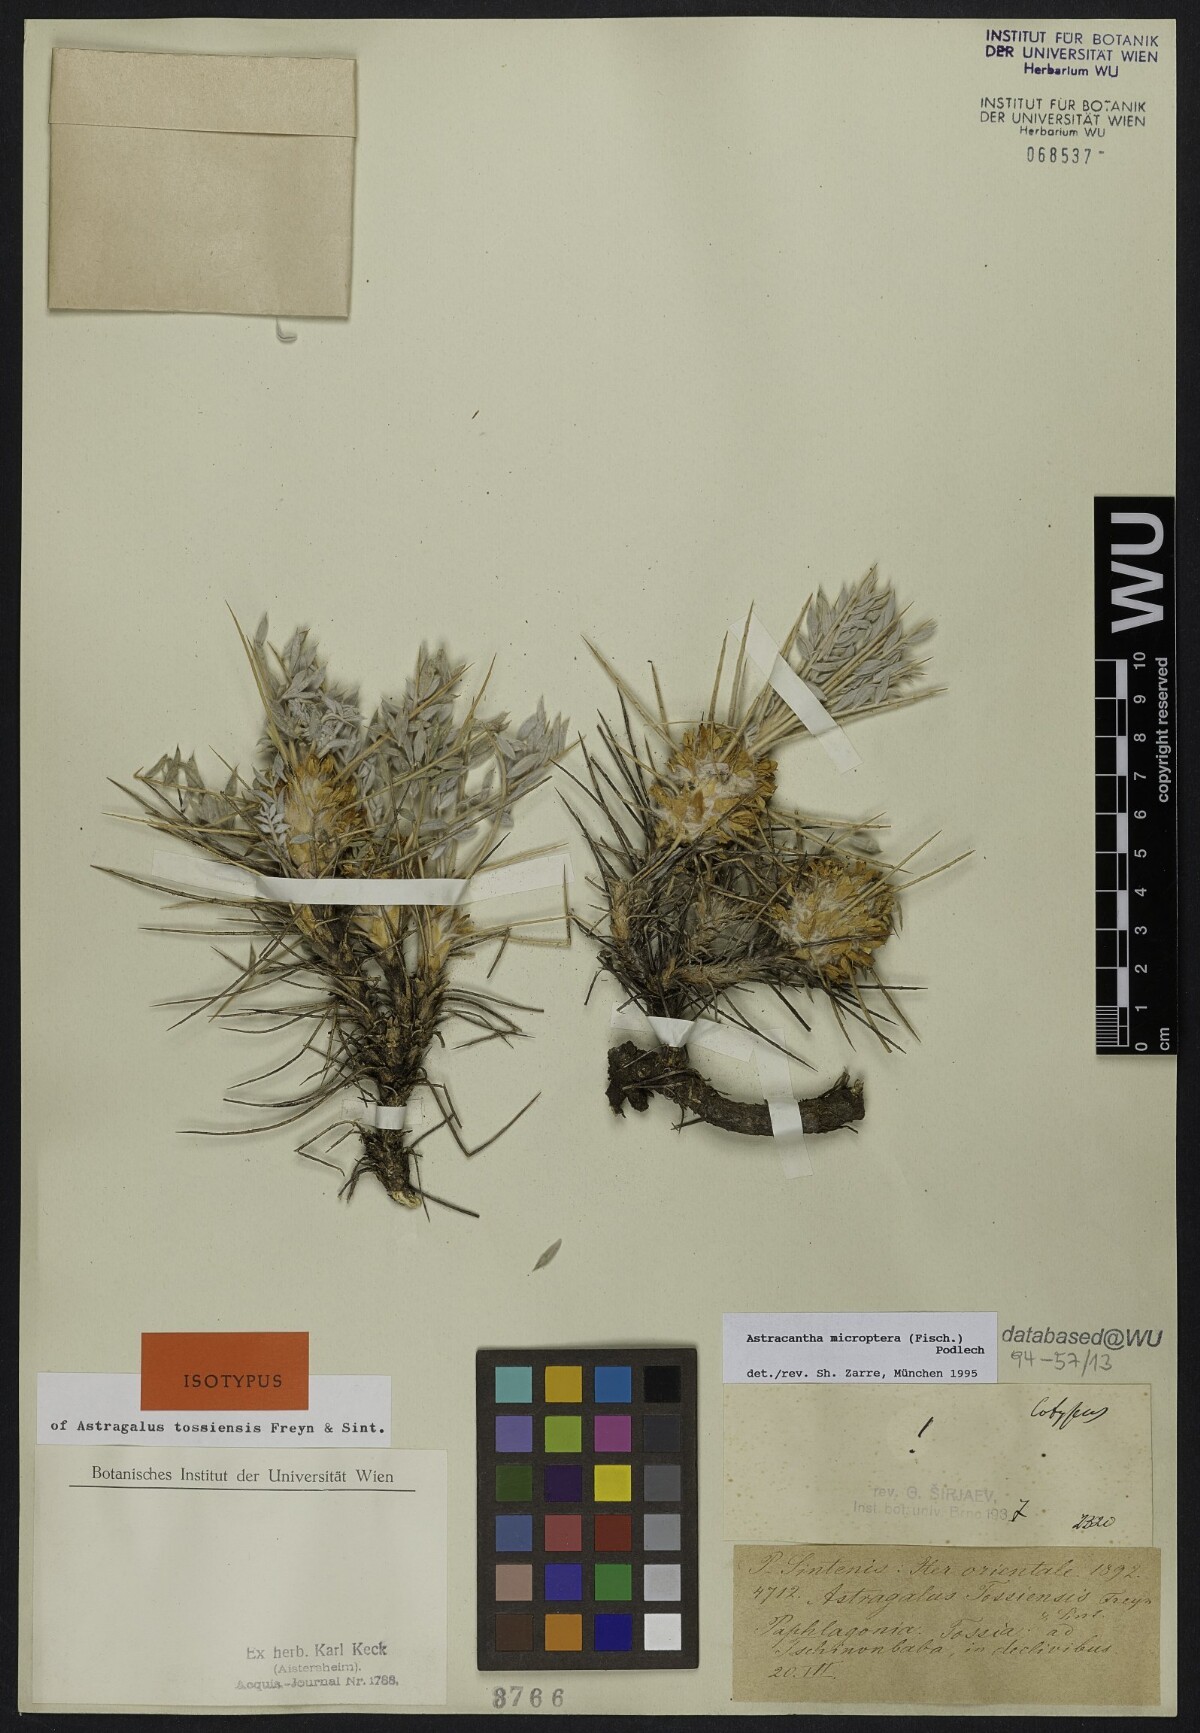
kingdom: Plantae
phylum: Tracheophyta
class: Magnoliopsida
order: Fabales
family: Fabaceae
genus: Astragalus
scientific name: Astragalus micropterus
